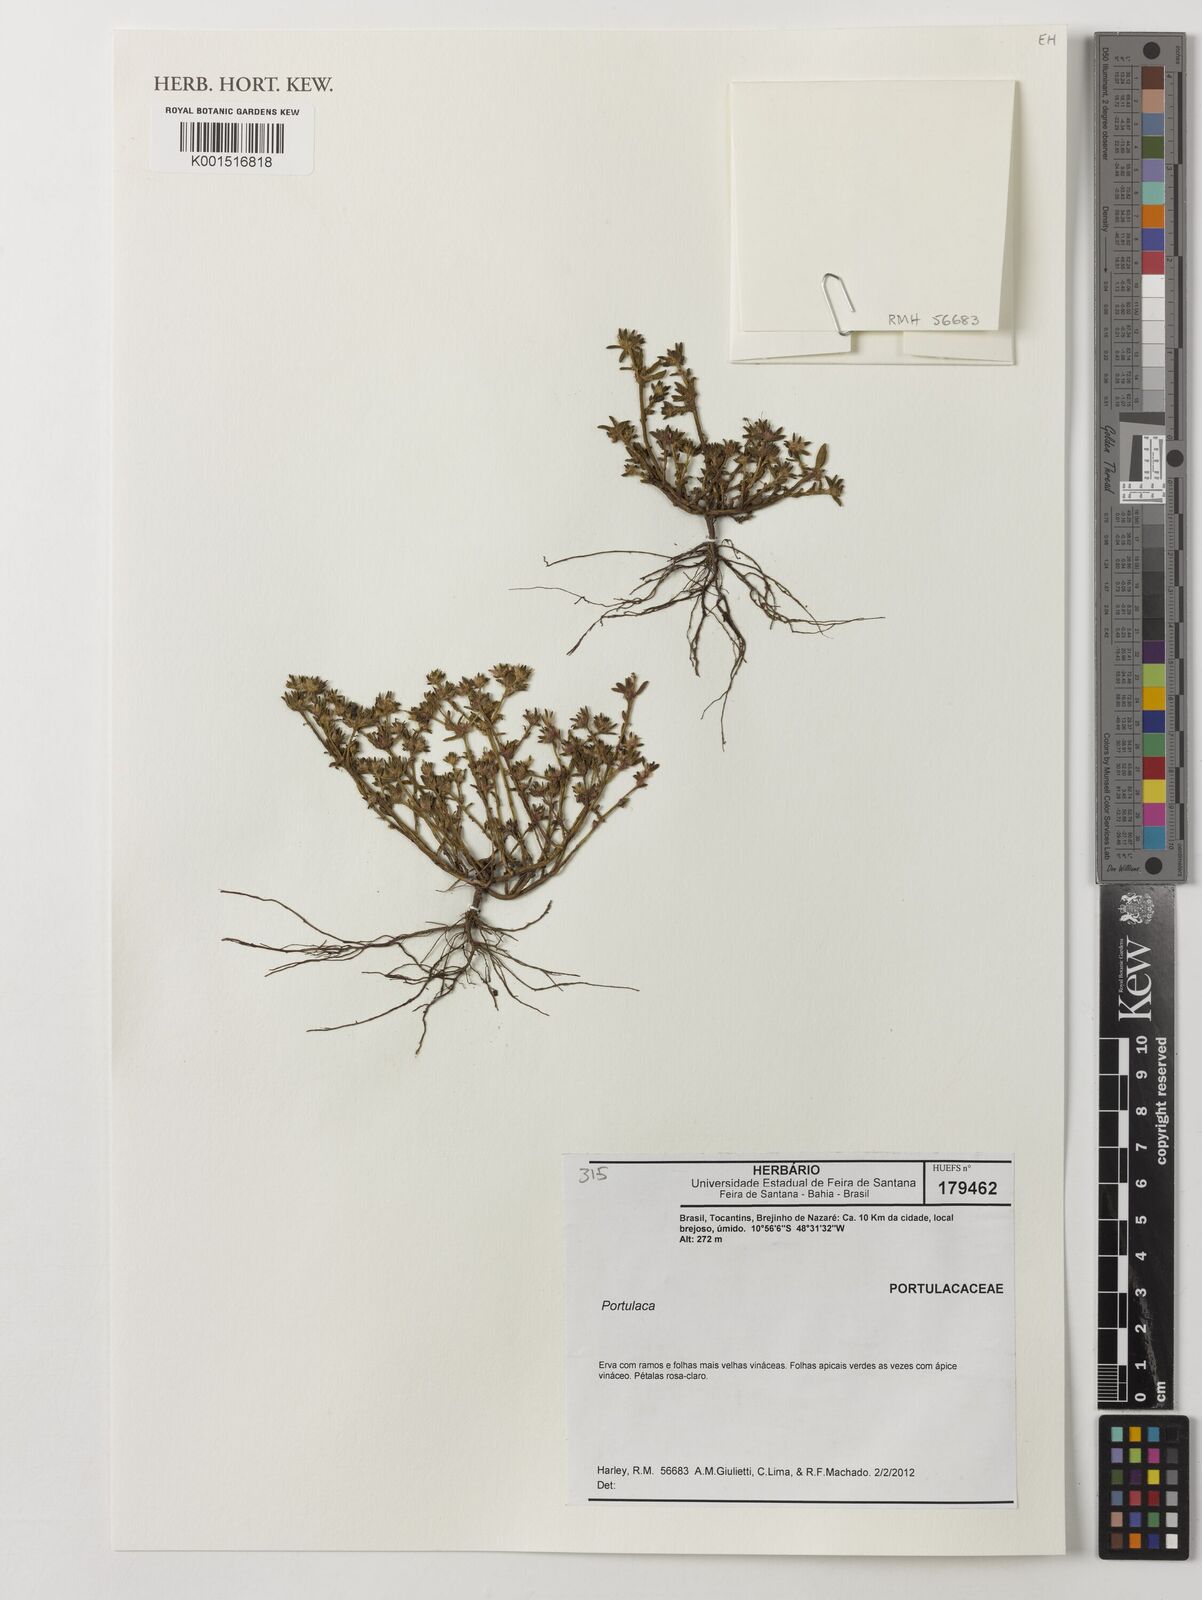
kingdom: Plantae
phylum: Tracheophyta
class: Magnoliopsida
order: Caryophyllales
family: Portulacaceae
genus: Portulaca
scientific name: Portulaca
